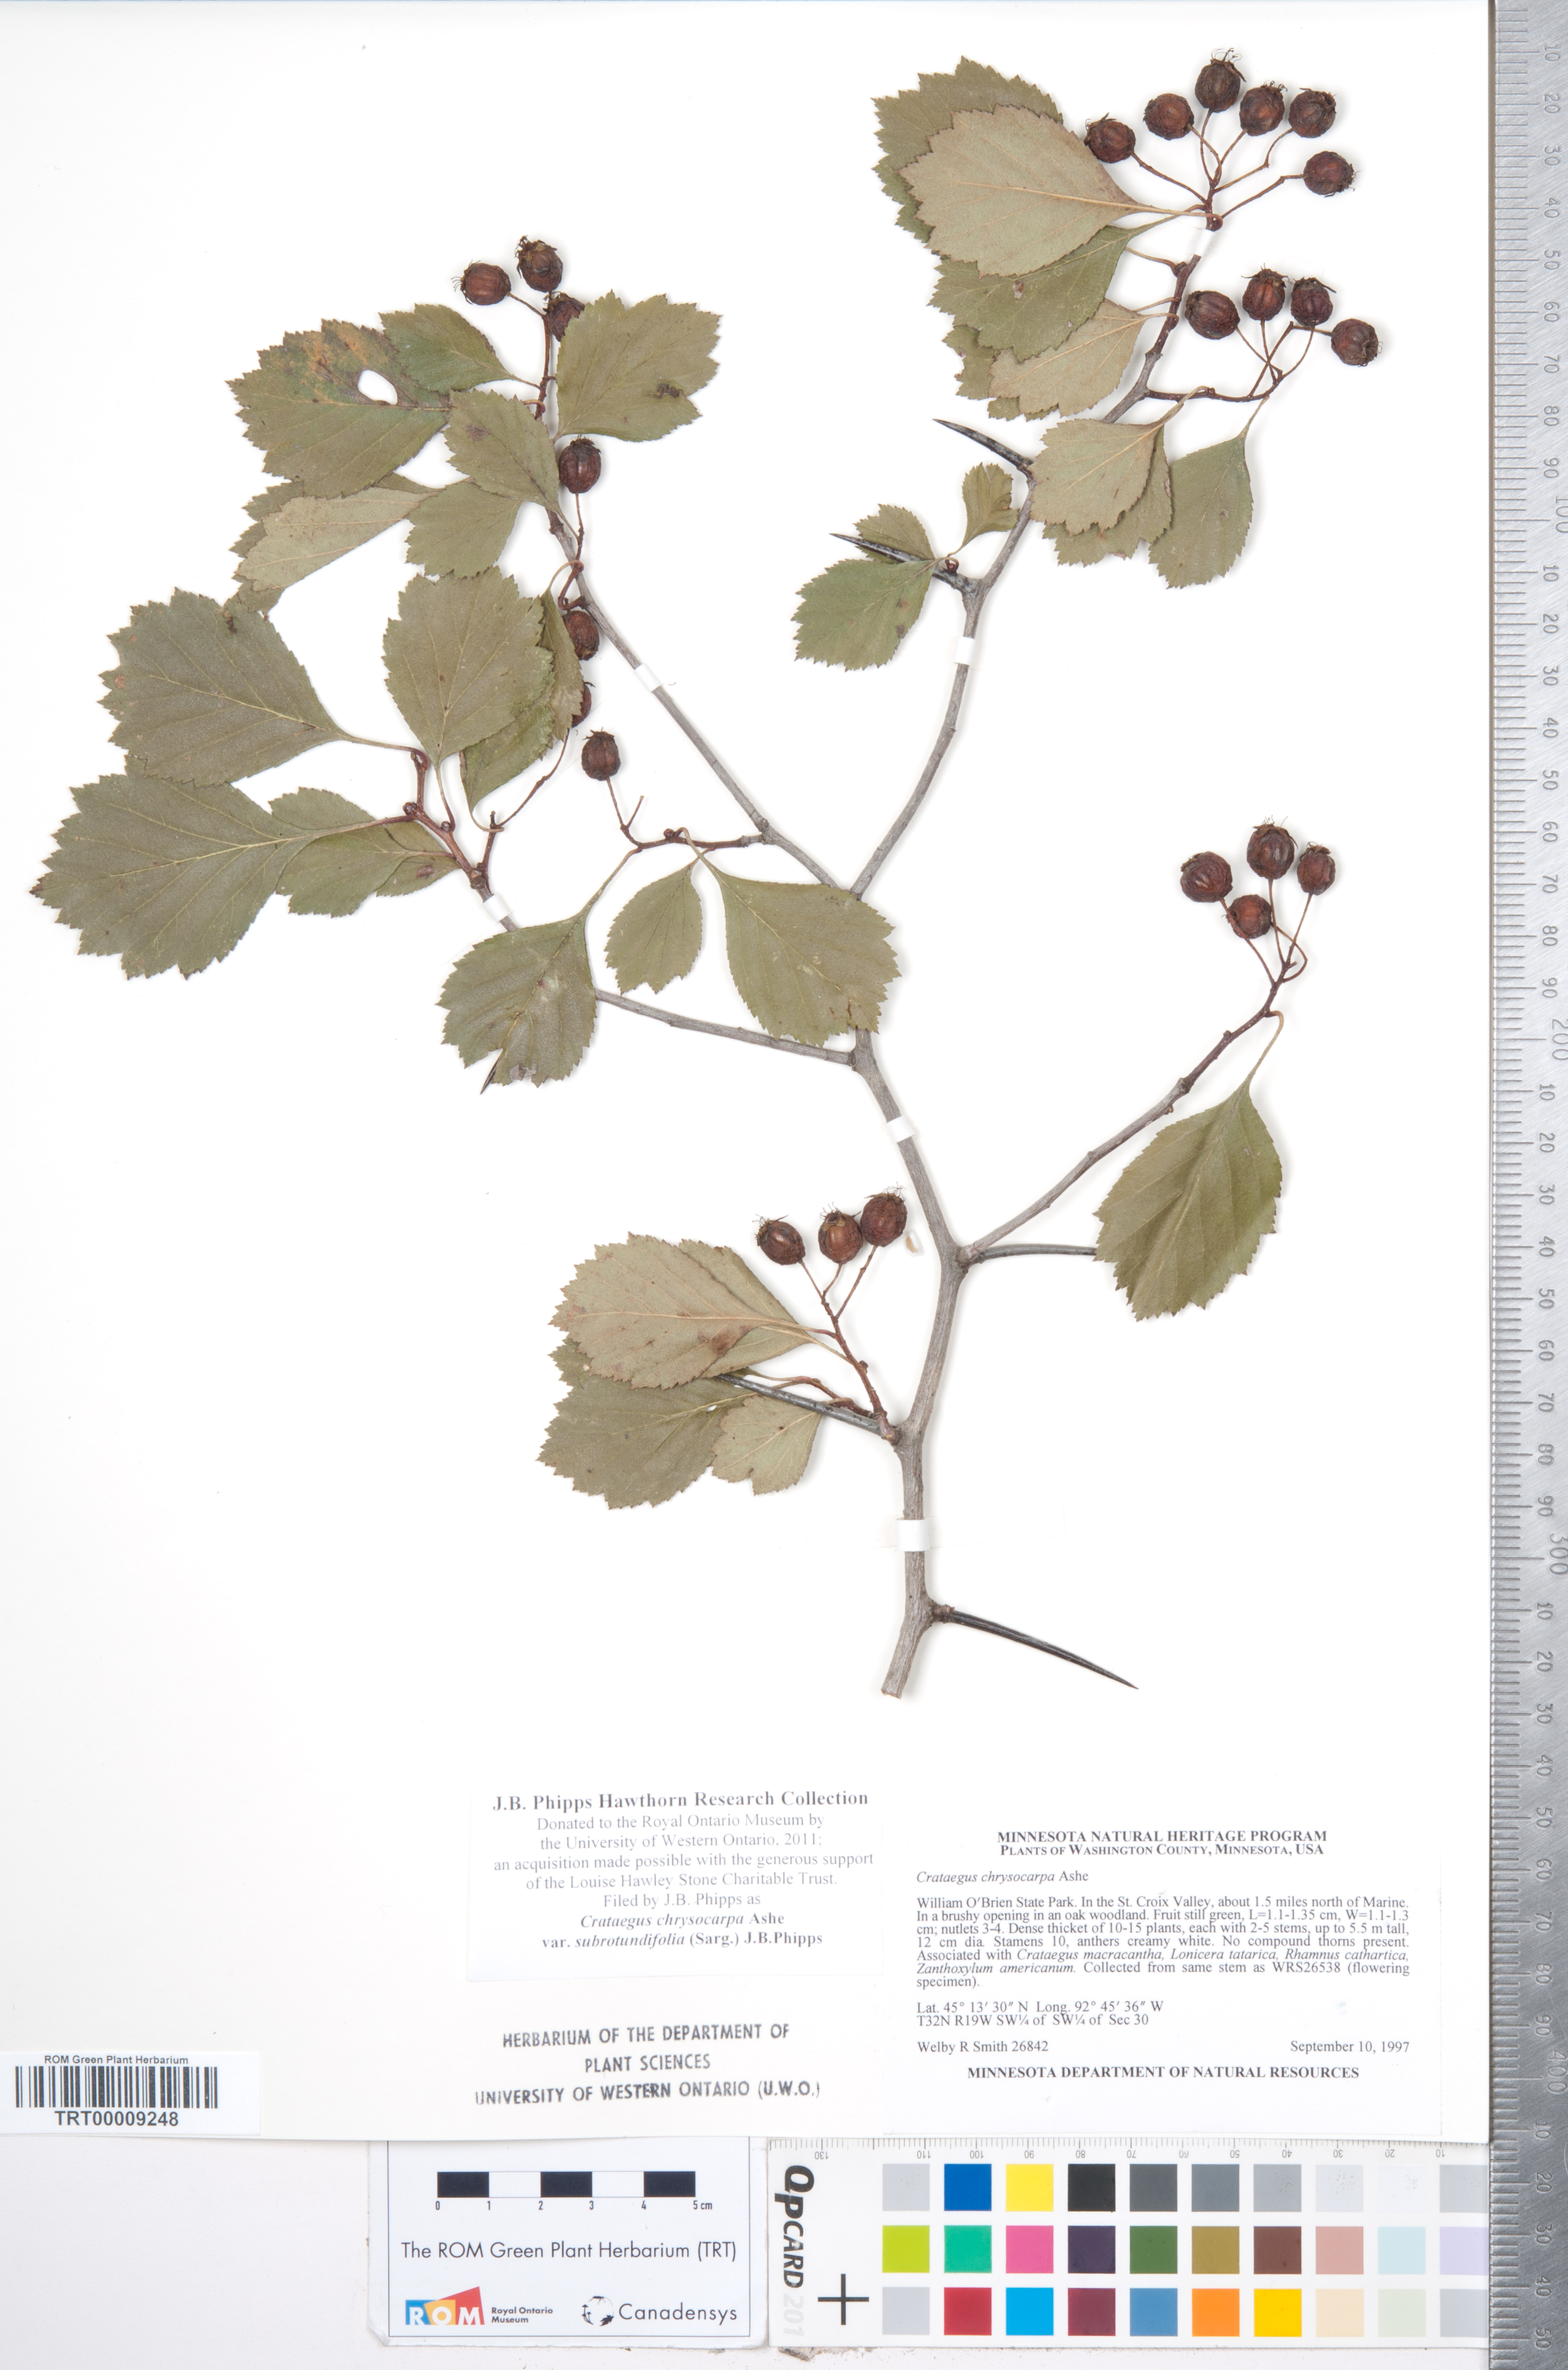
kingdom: Plantae
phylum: Tracheophyta
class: Magnoliopsida
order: Rosales
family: Rosaceae
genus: Crataegus
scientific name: Crataegus chrysocarpa
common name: Fire-berry hawthorn
